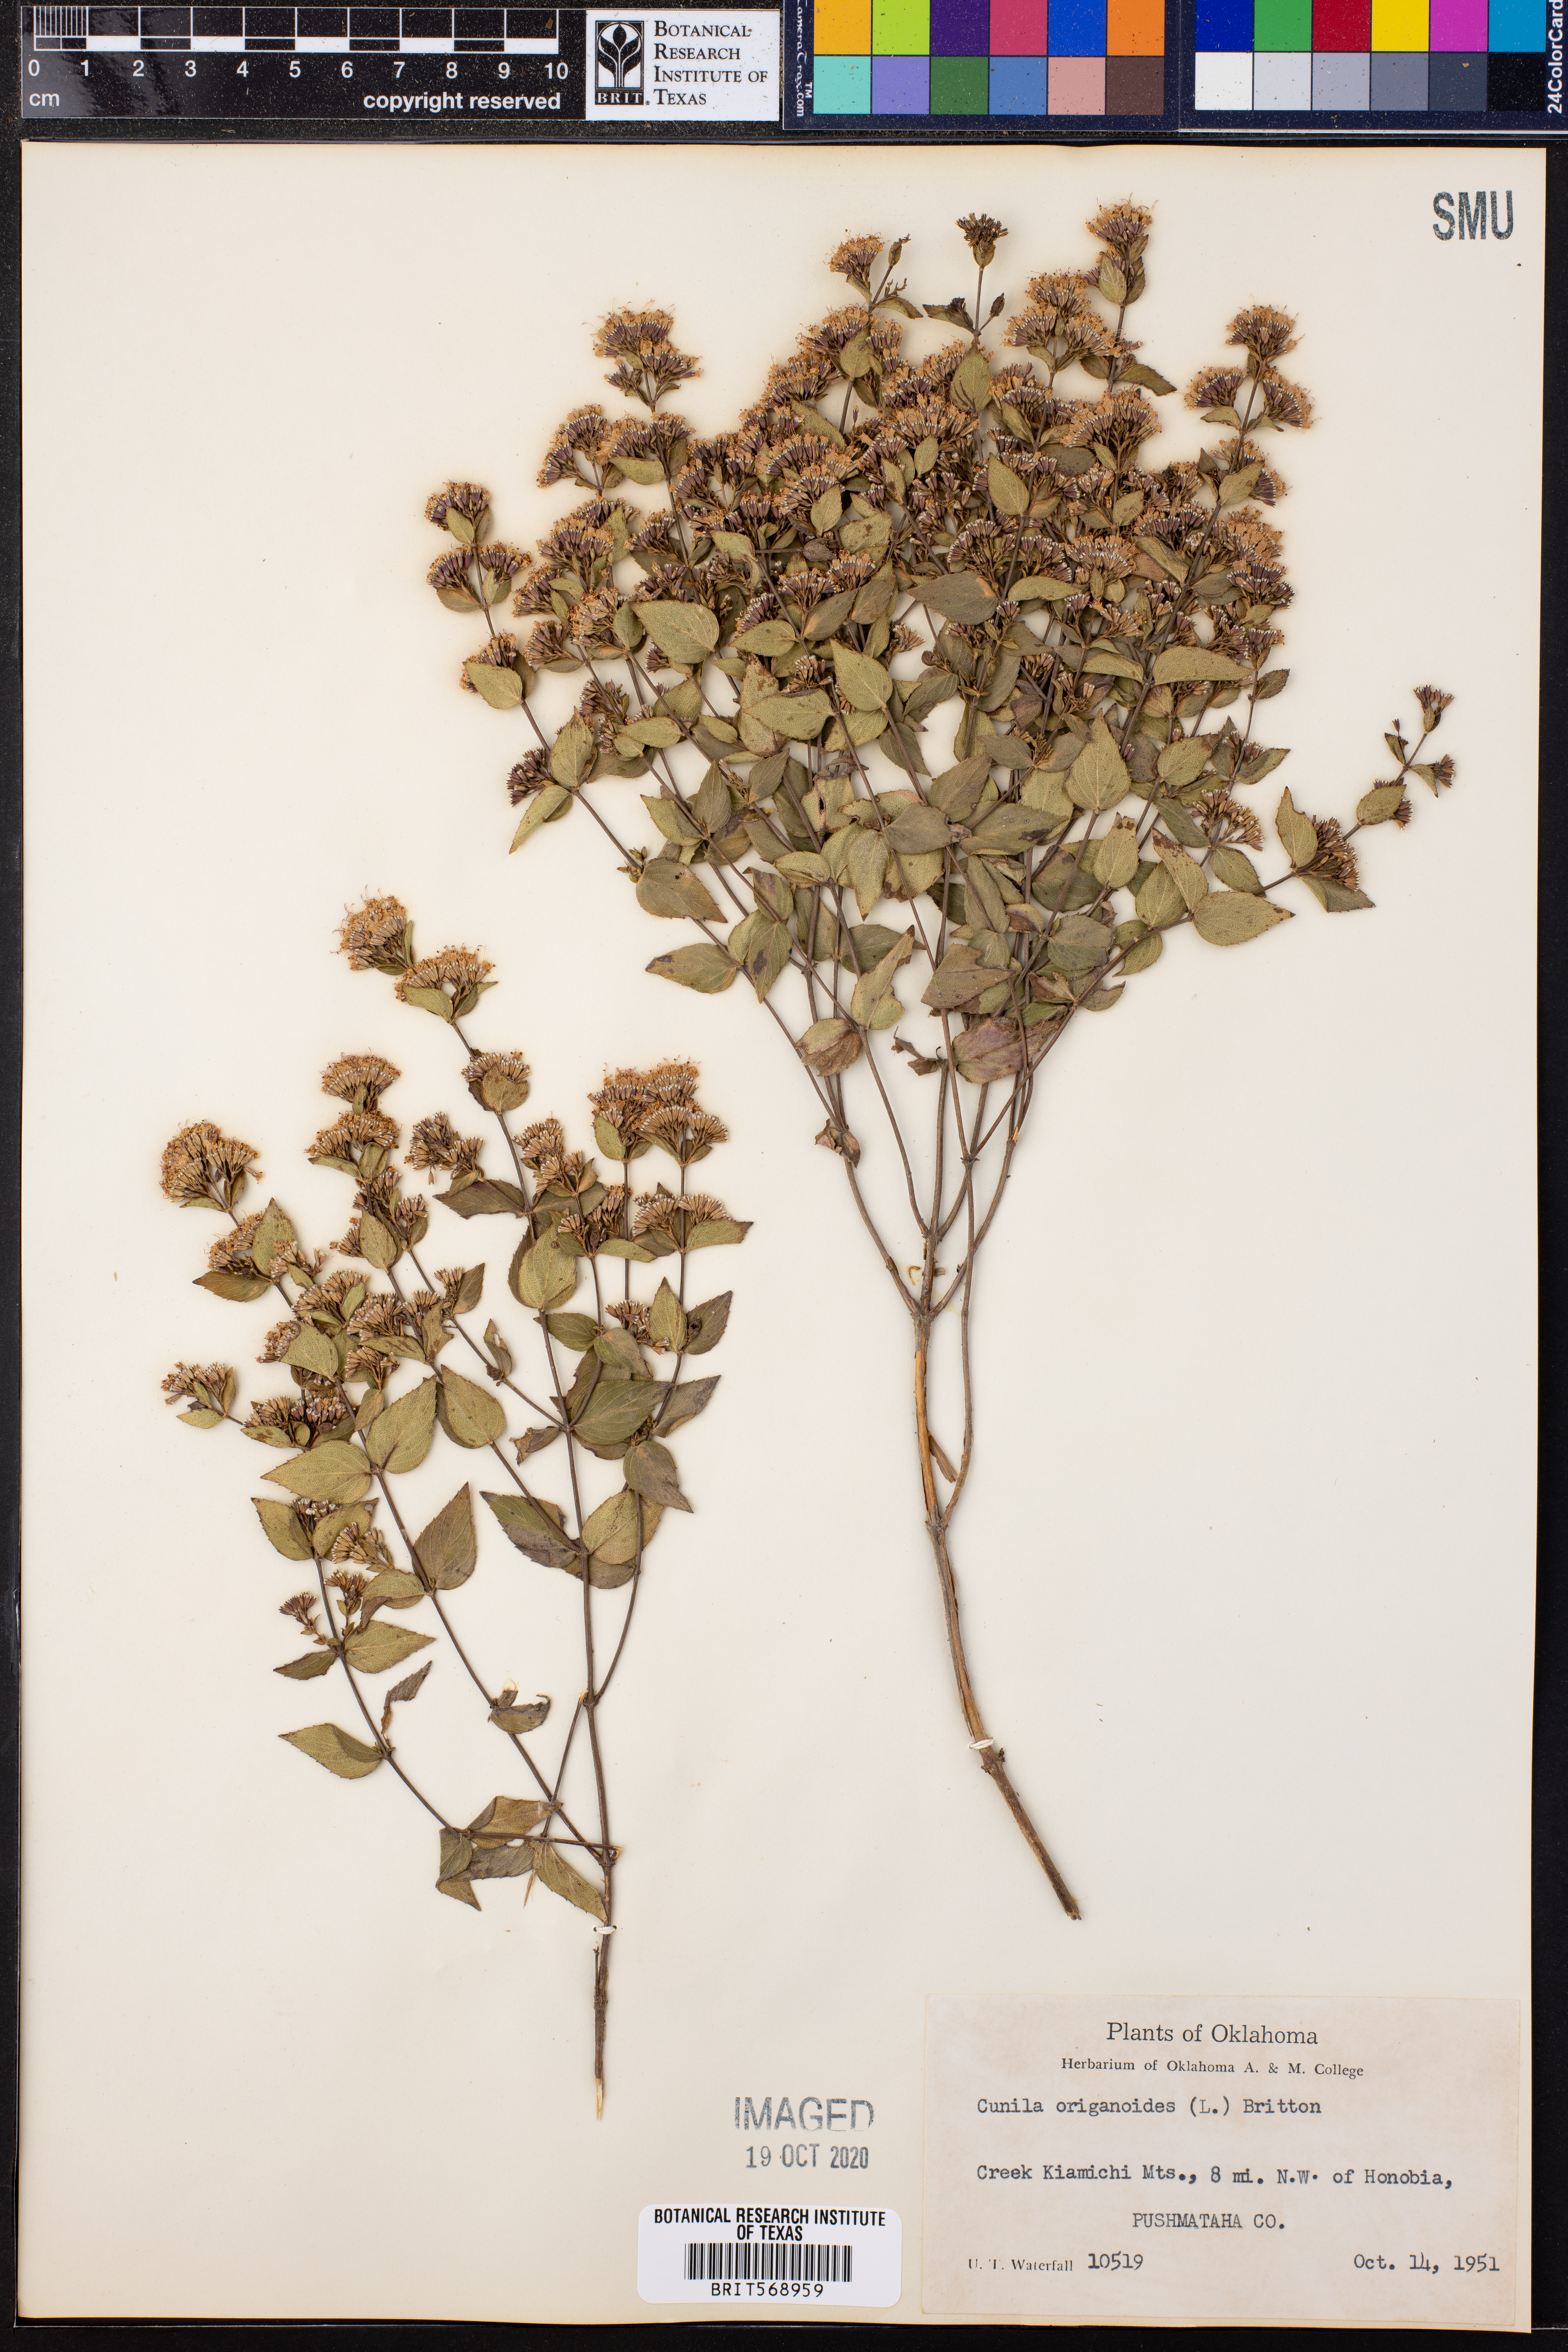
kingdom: Plantae
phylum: Tracheophyta
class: Magnoliopsida
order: Lamiales
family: Lamiaceae
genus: Cunila
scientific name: Cunila origanoides
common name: American dittany
